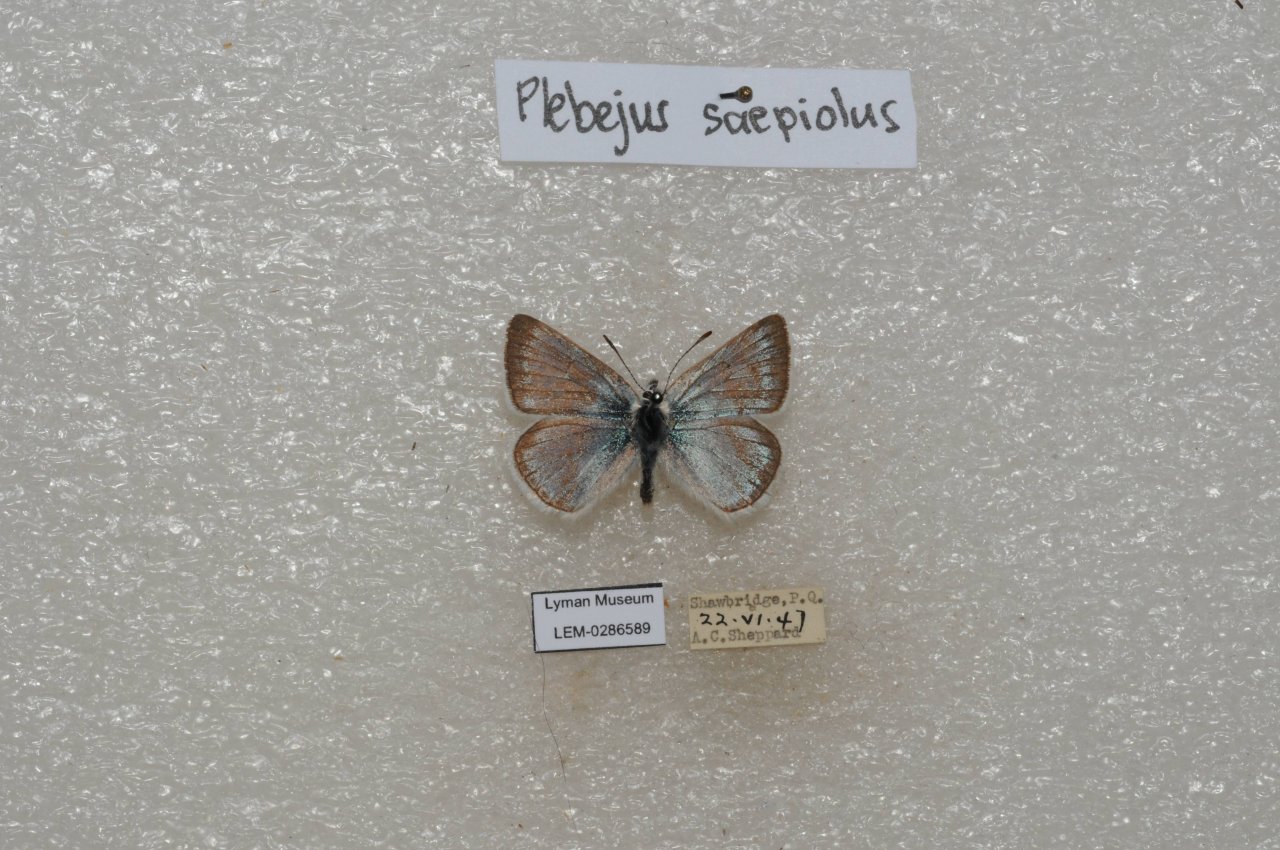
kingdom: Animalia
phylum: Arthropoda
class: Insecta
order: Lepidoptera
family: Lycaenidae
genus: Plebejus
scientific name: Plebejus saepiolus
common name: Greenish Blue
